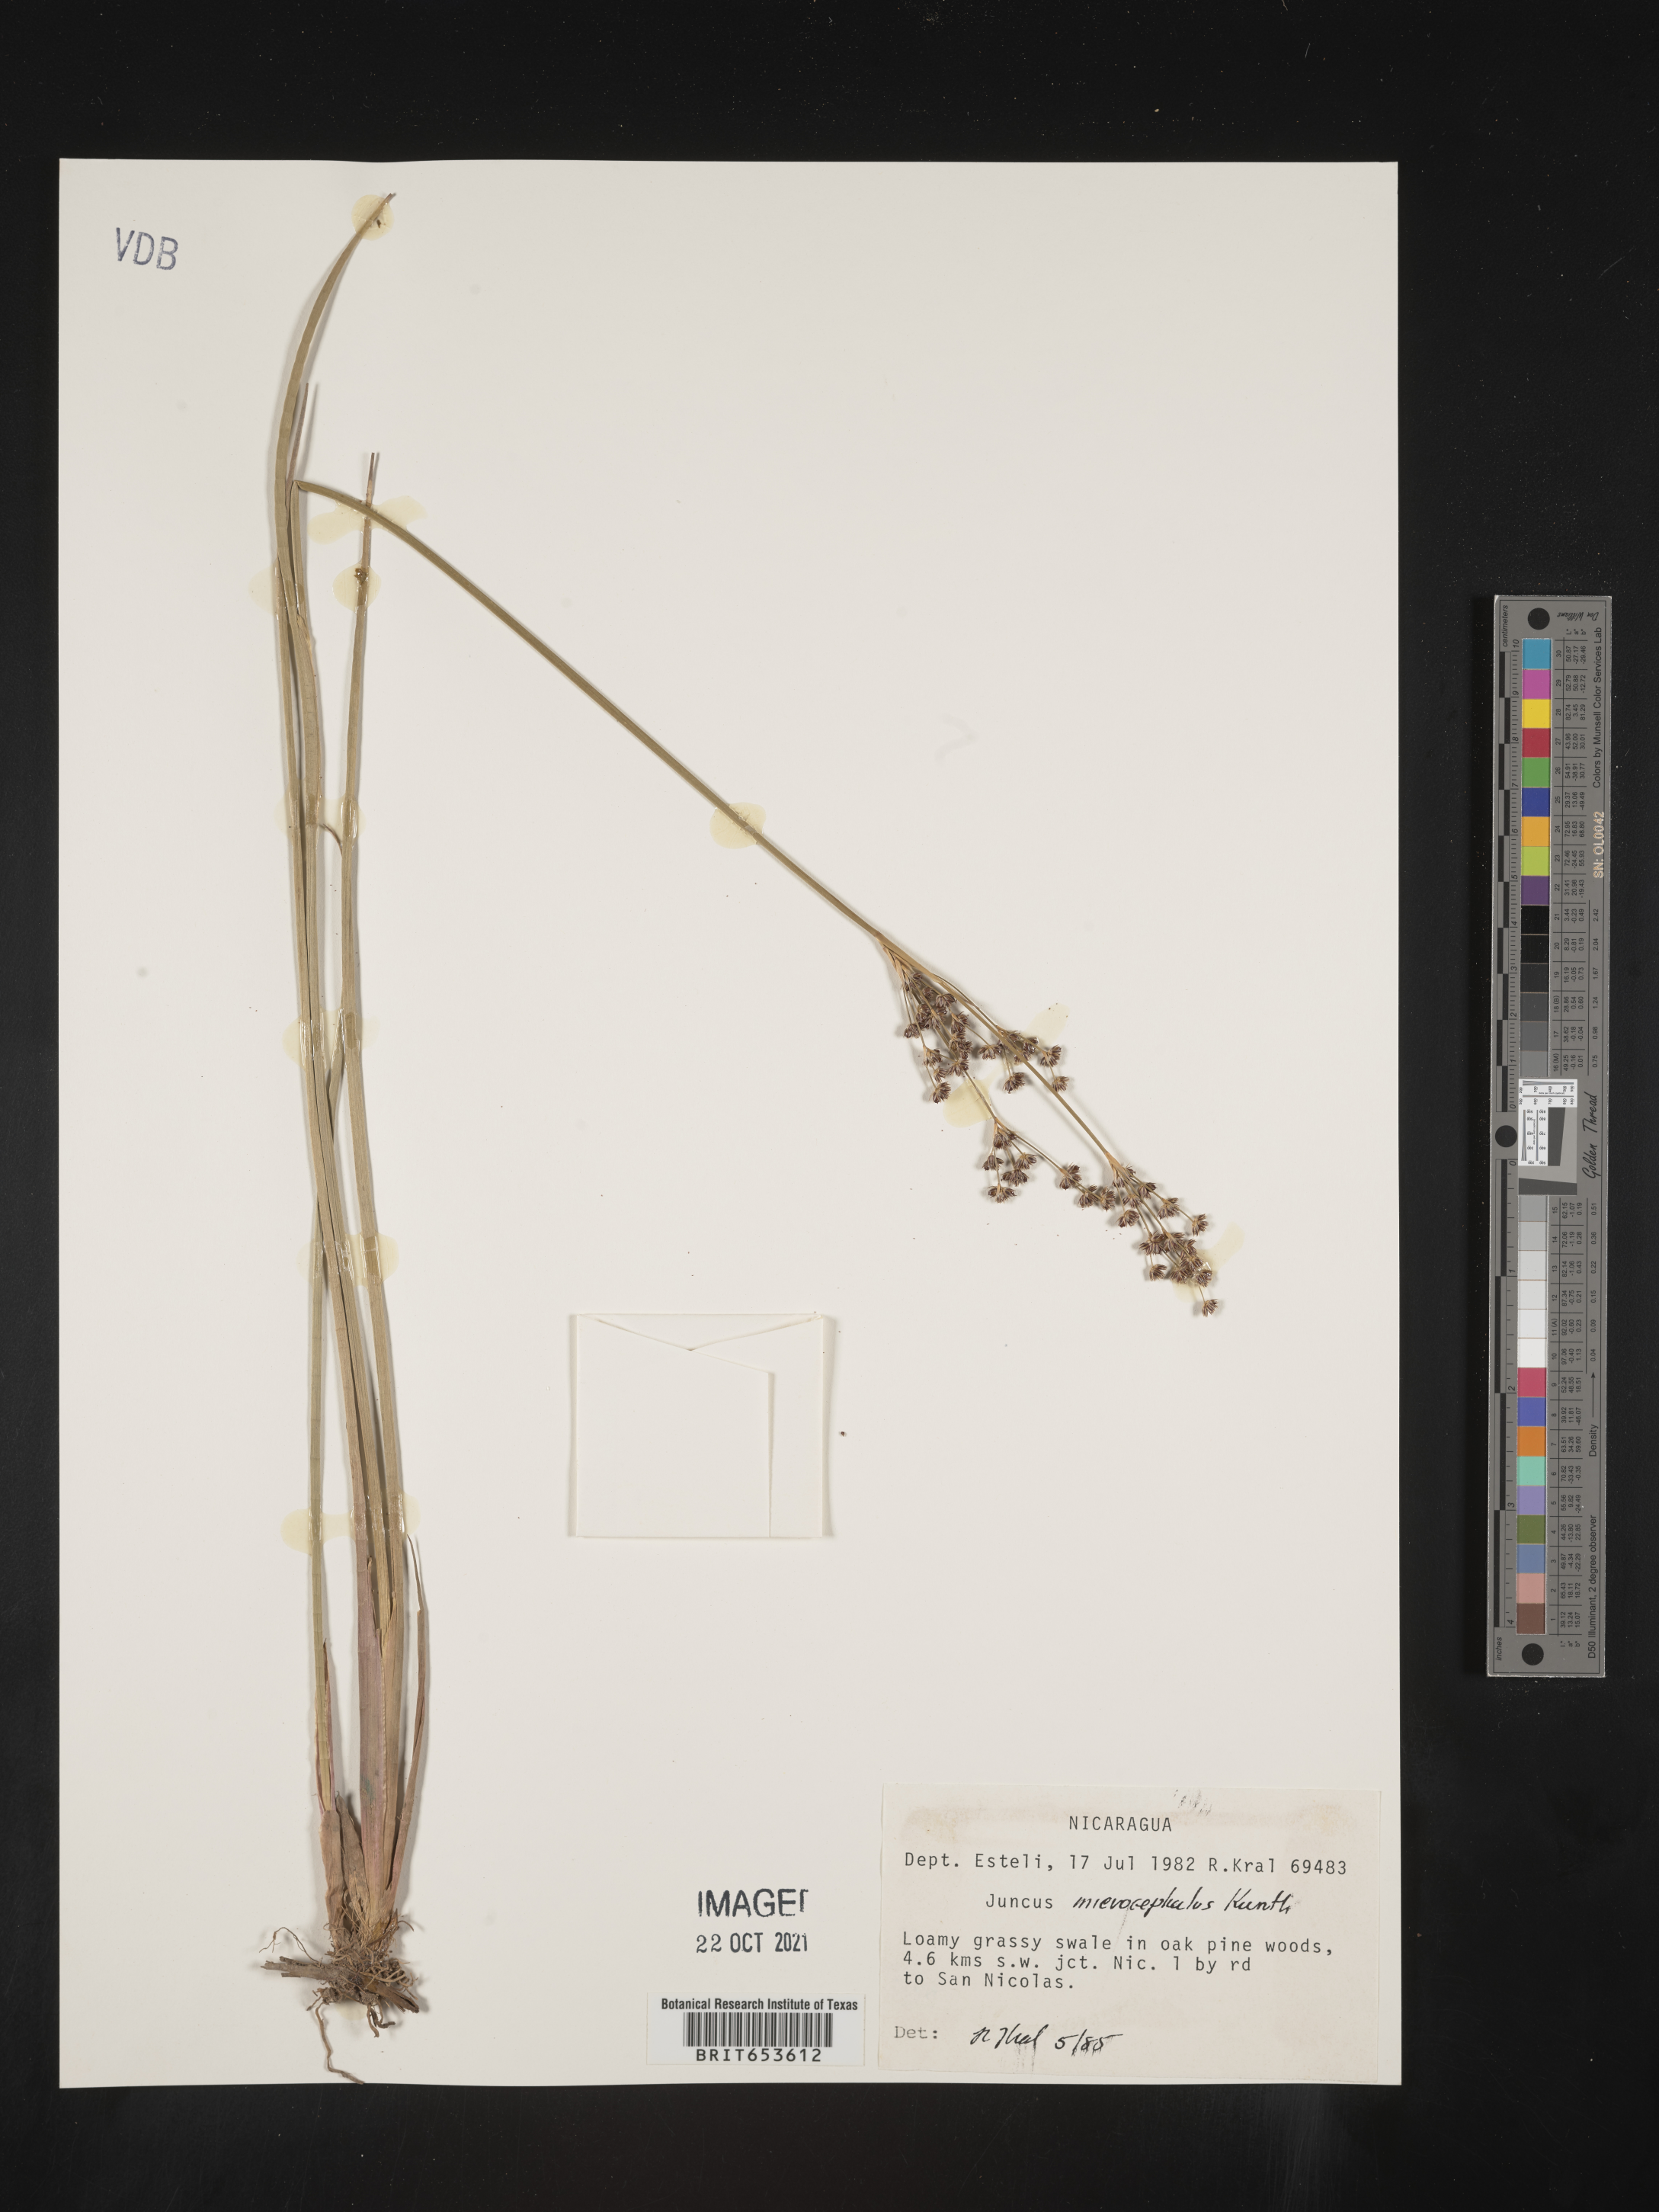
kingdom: Plantae
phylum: Tracheophyta
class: Liliopsida
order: Poales
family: Juncaceae
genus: Juncus
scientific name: Juncus
